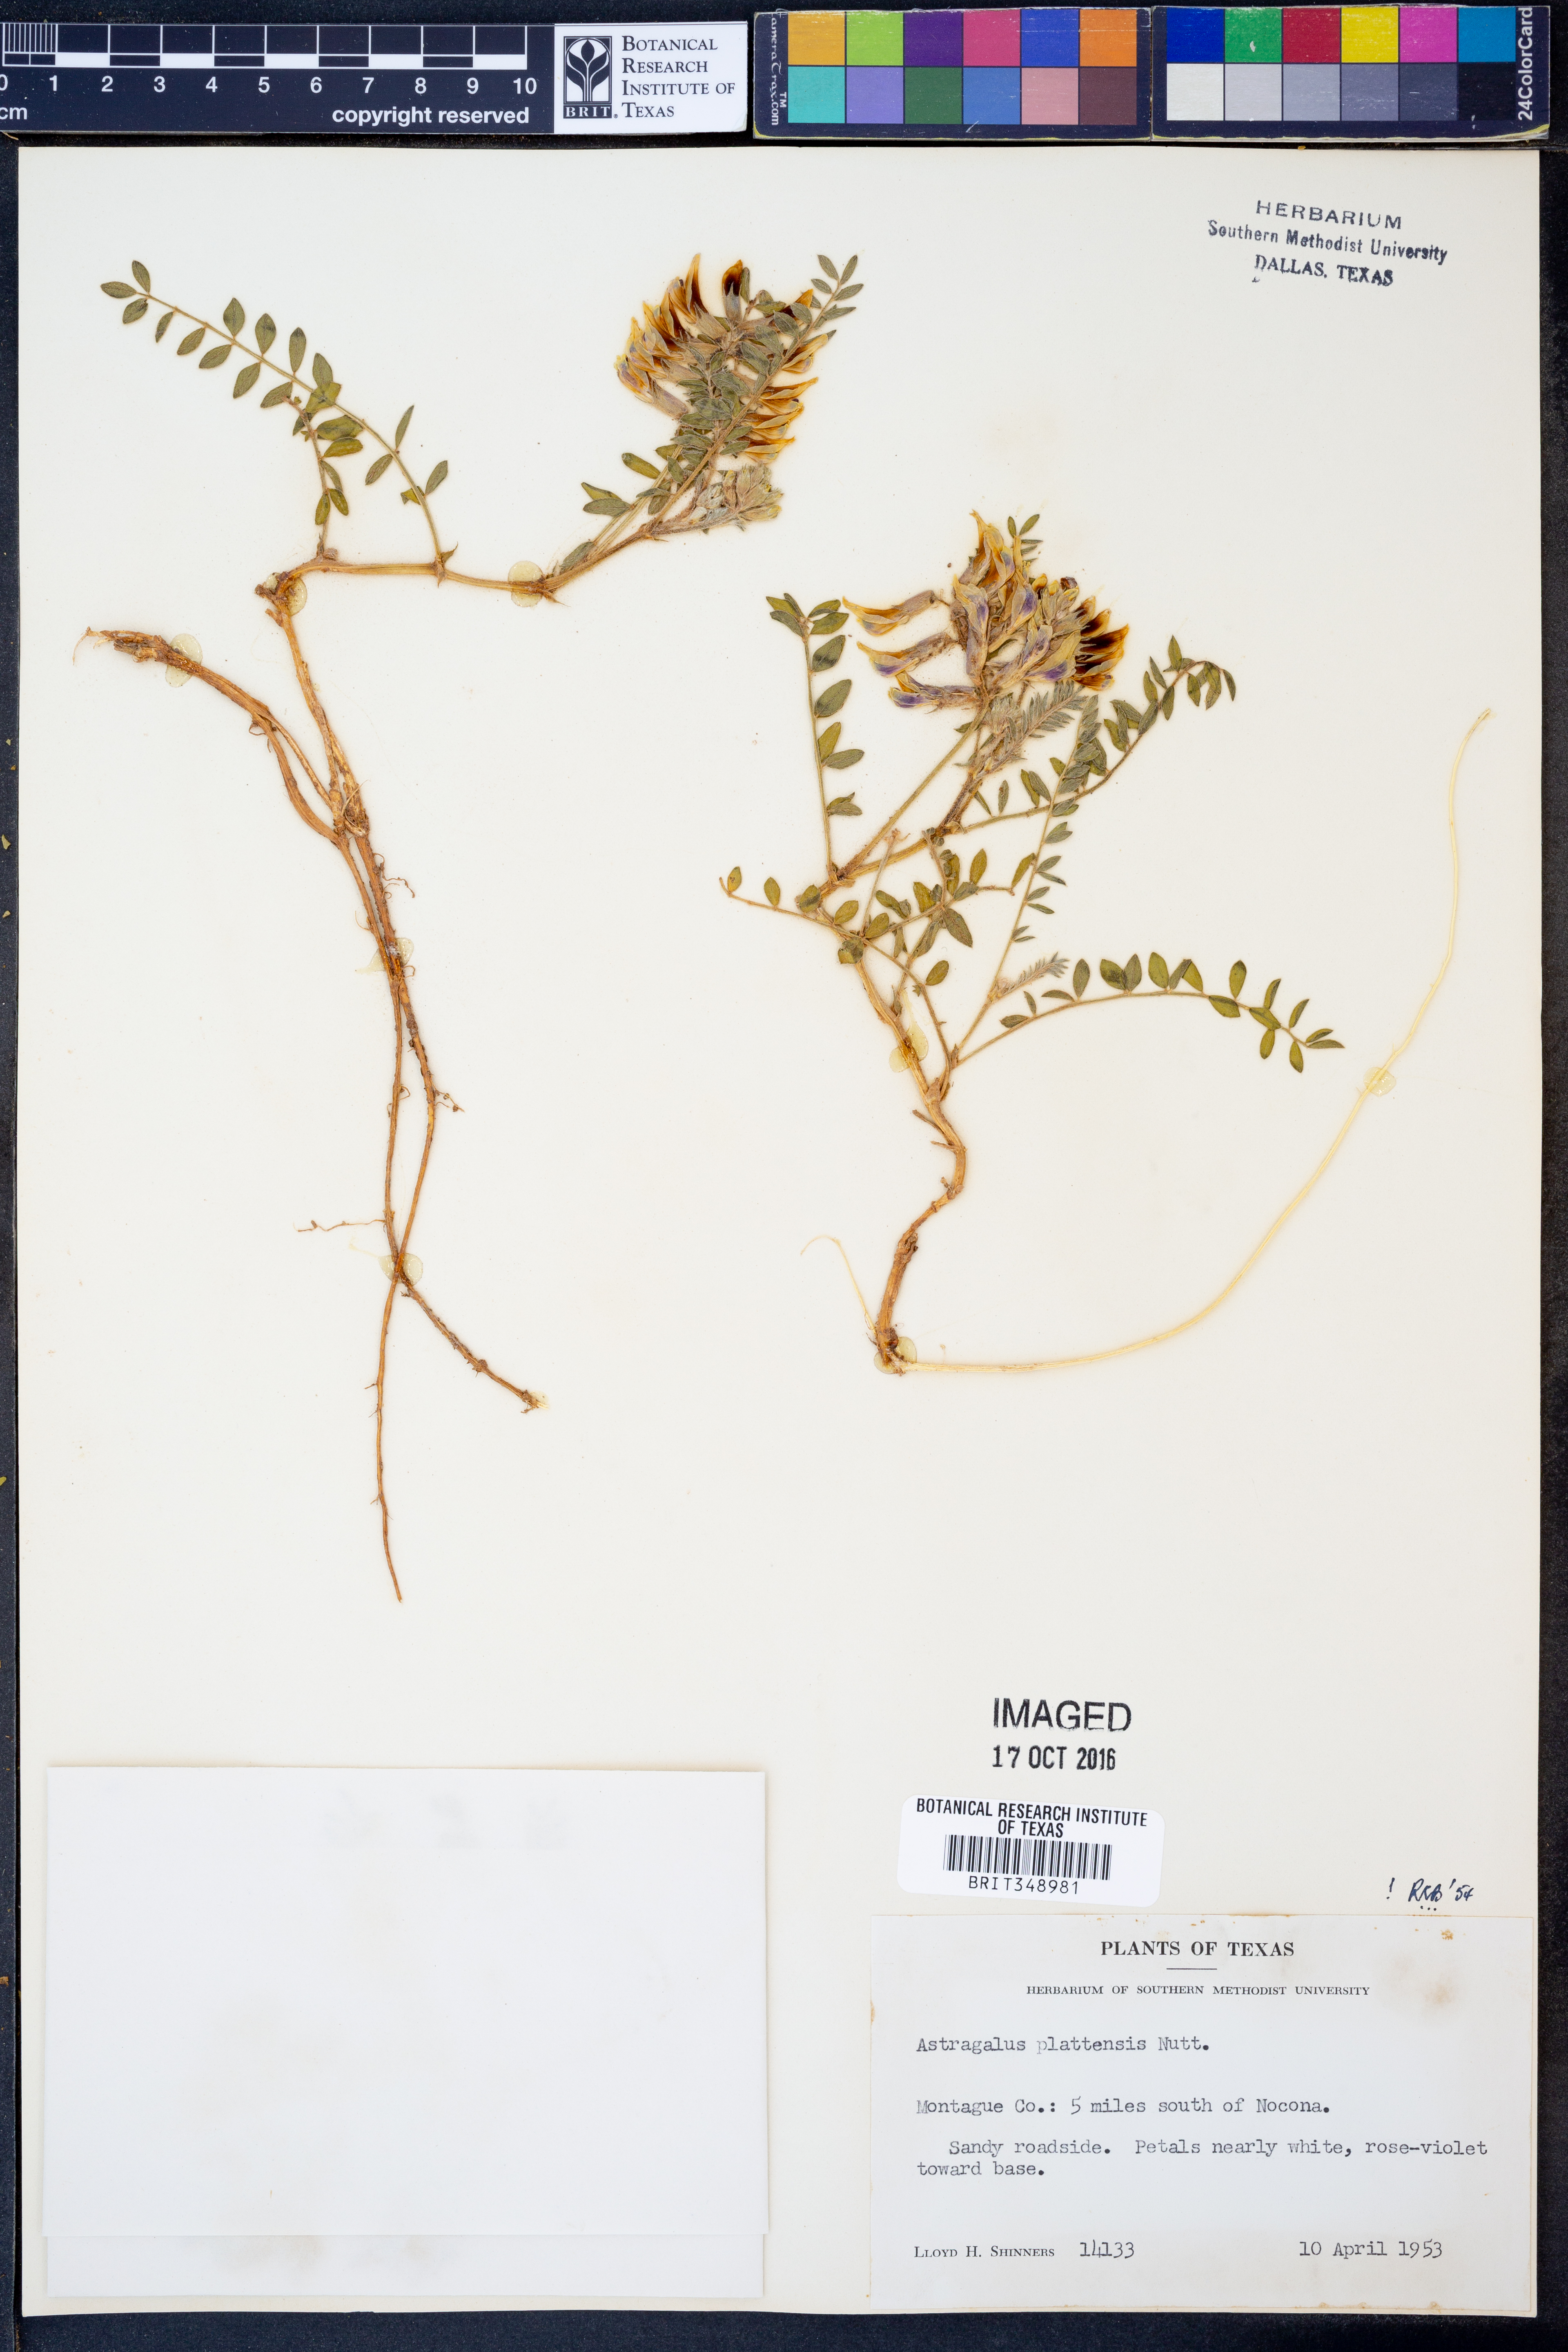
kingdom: Plantae
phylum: Tracheophyta
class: Magnoliopsida
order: Fabales
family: Fabaceae
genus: Astragalus
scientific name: Astragalus plattensis
